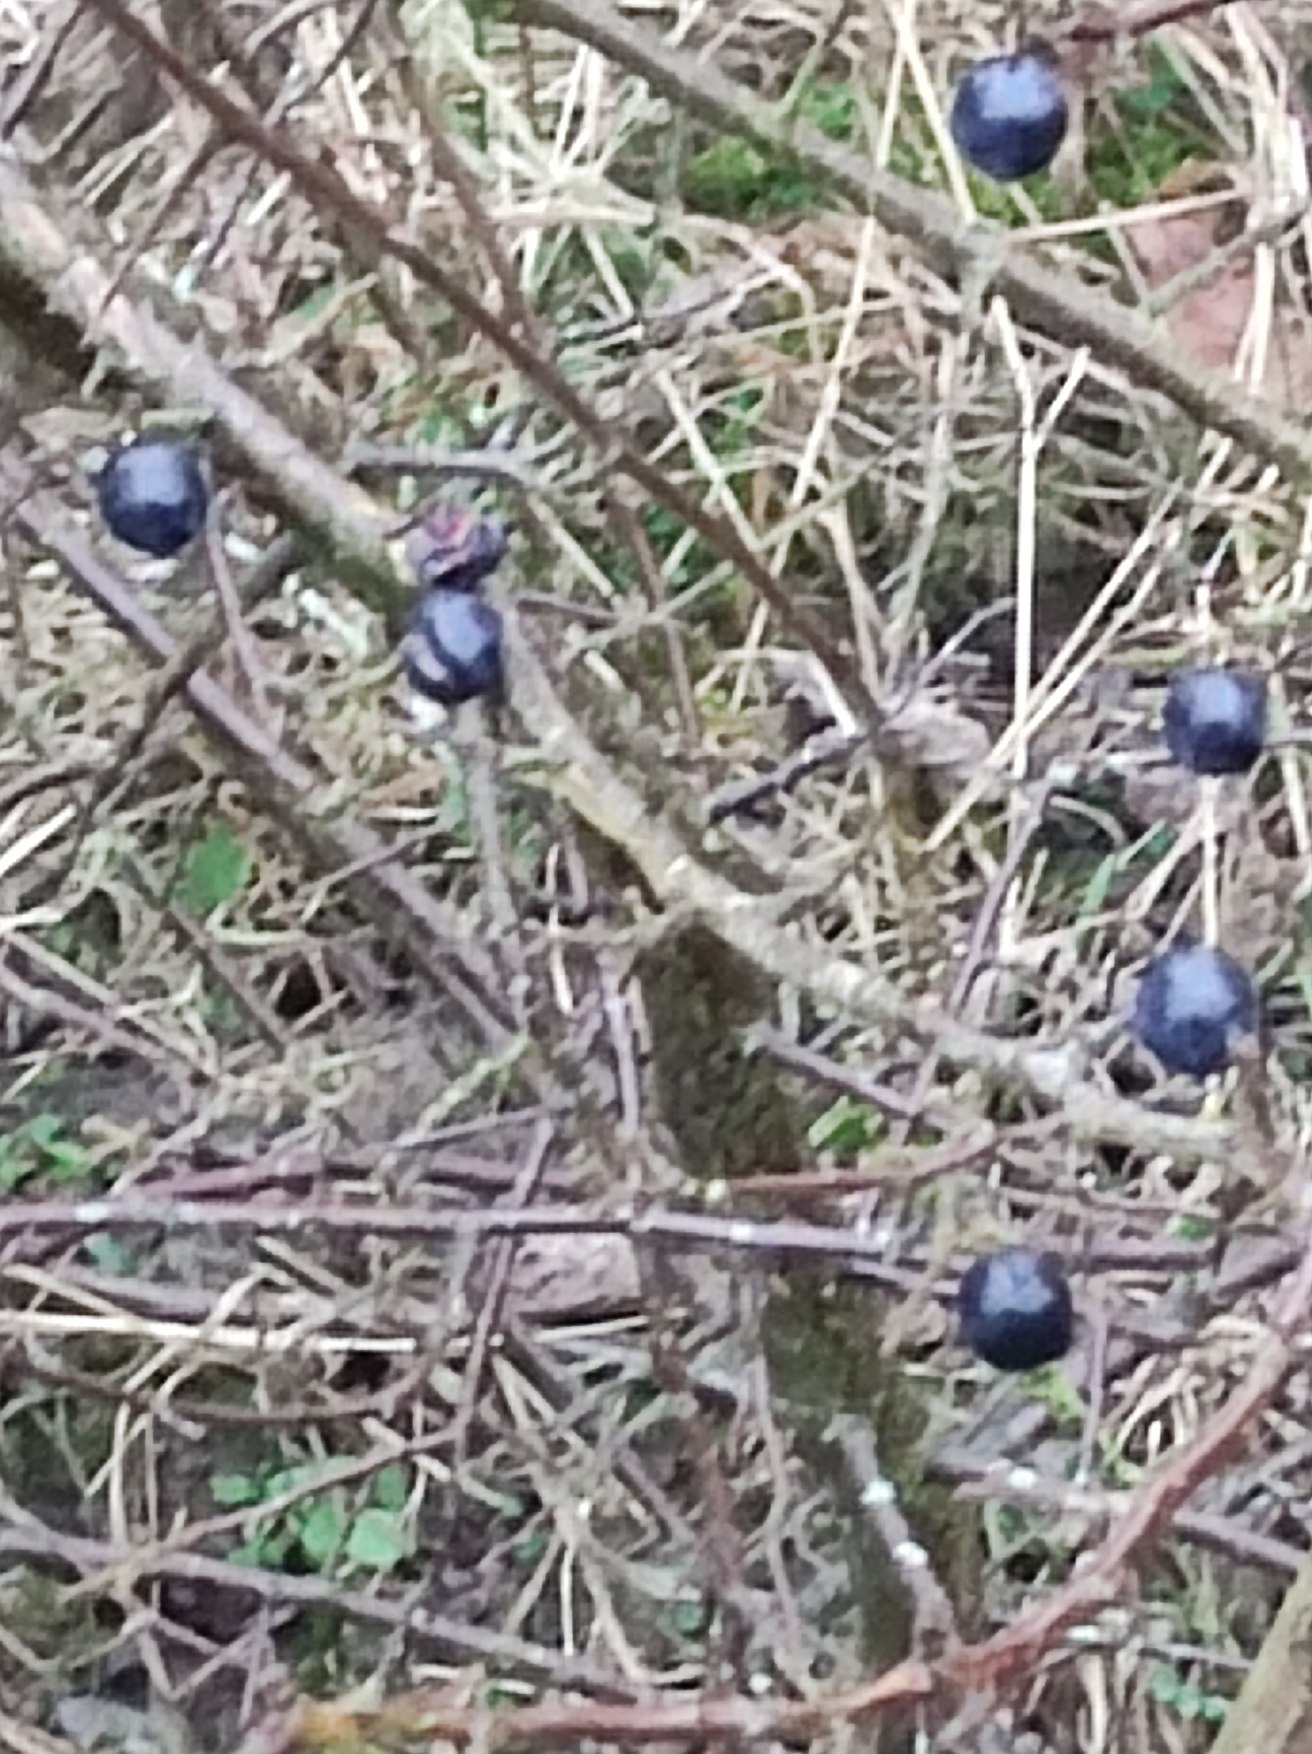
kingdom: Plantae
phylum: Tracheophyta
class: Magnoliopsida
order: Rosales
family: Rosaceae
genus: Prunus
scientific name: Prunus spinosa
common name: Slåen
